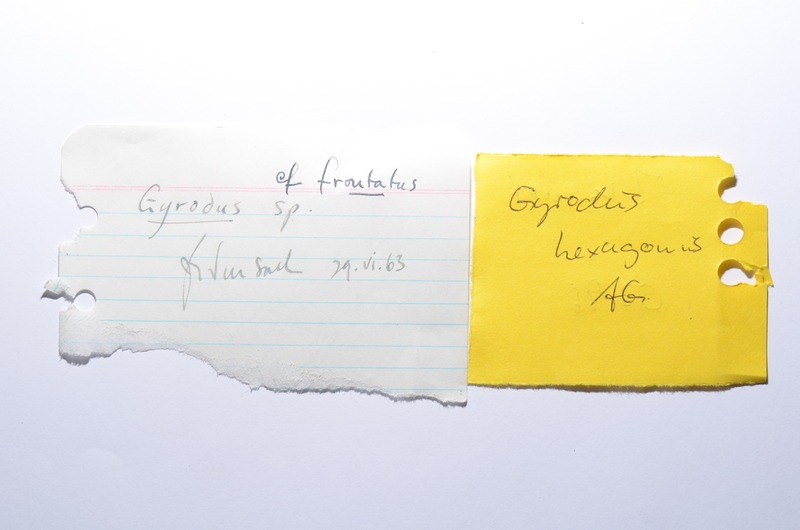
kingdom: Animalia
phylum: Chordata
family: Gyrodontidae
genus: Gyrodus
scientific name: Gyrodus hexagonus
